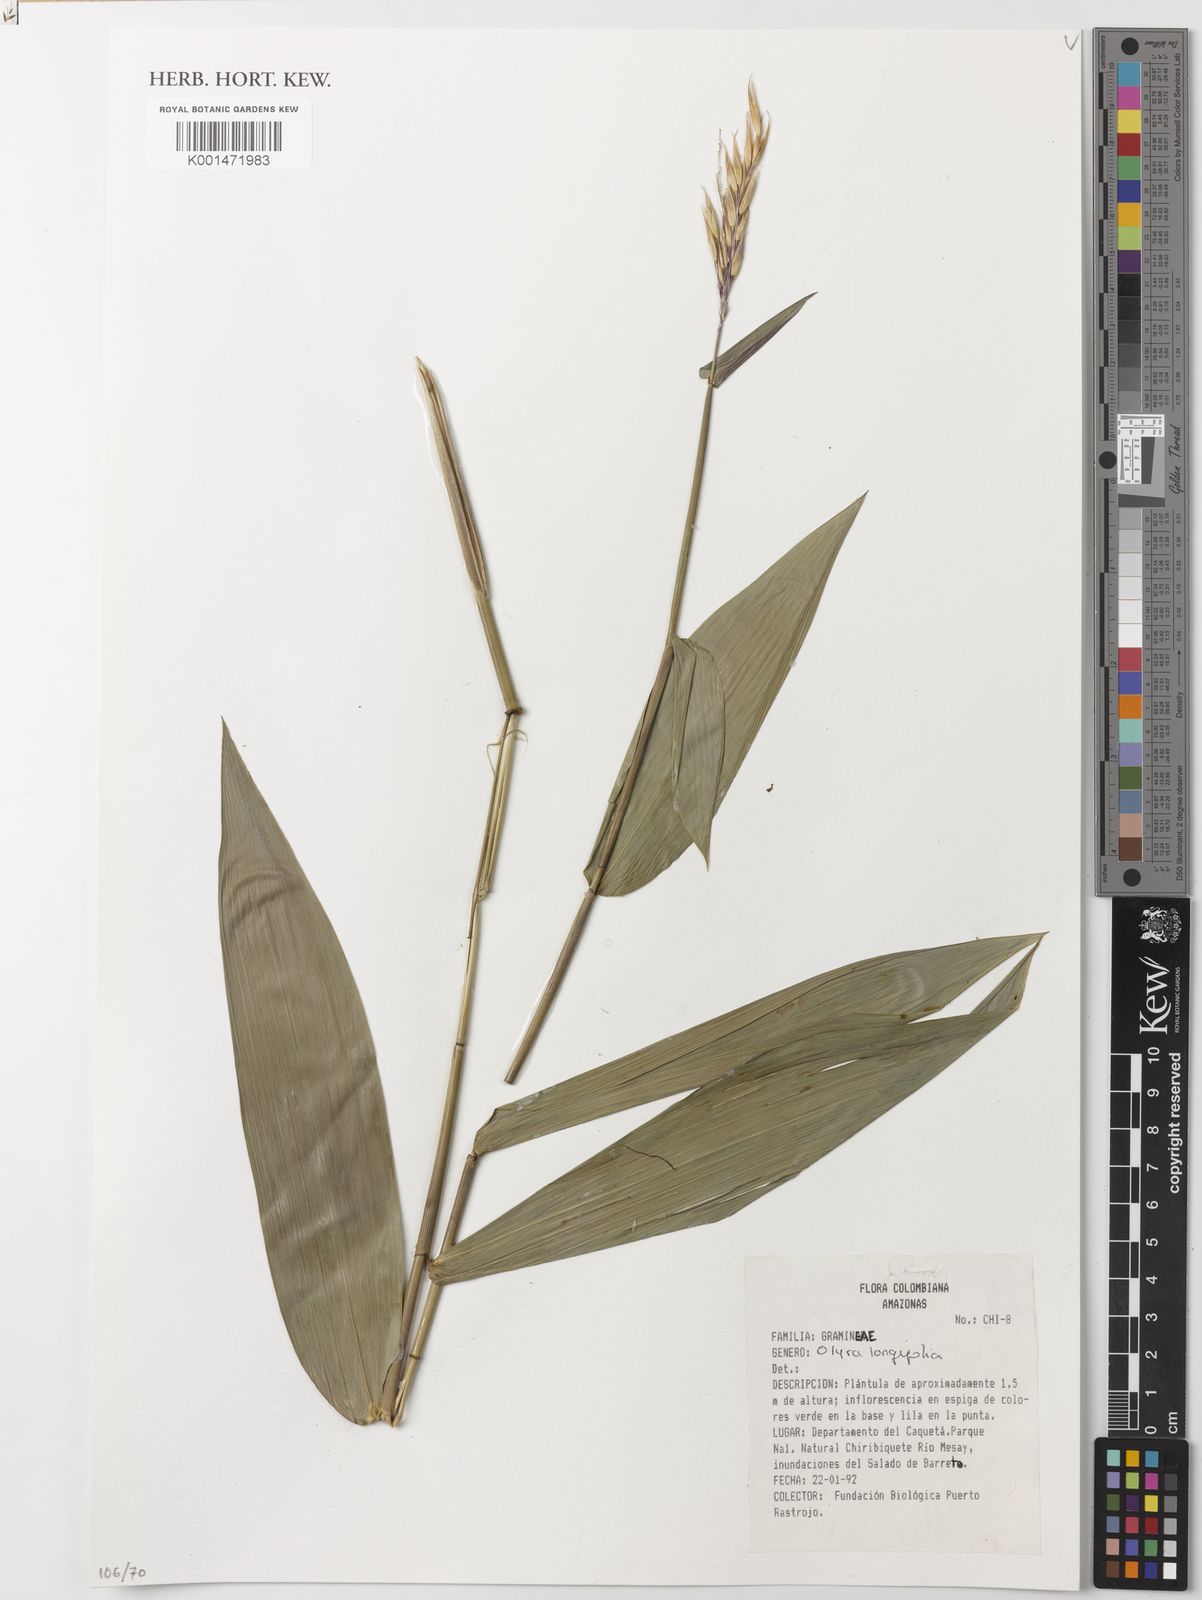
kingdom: Plantae
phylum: Tracheophyta
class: Liliopsida
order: Poales
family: Poaceae
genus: Olyra
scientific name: Olyra longifolia
